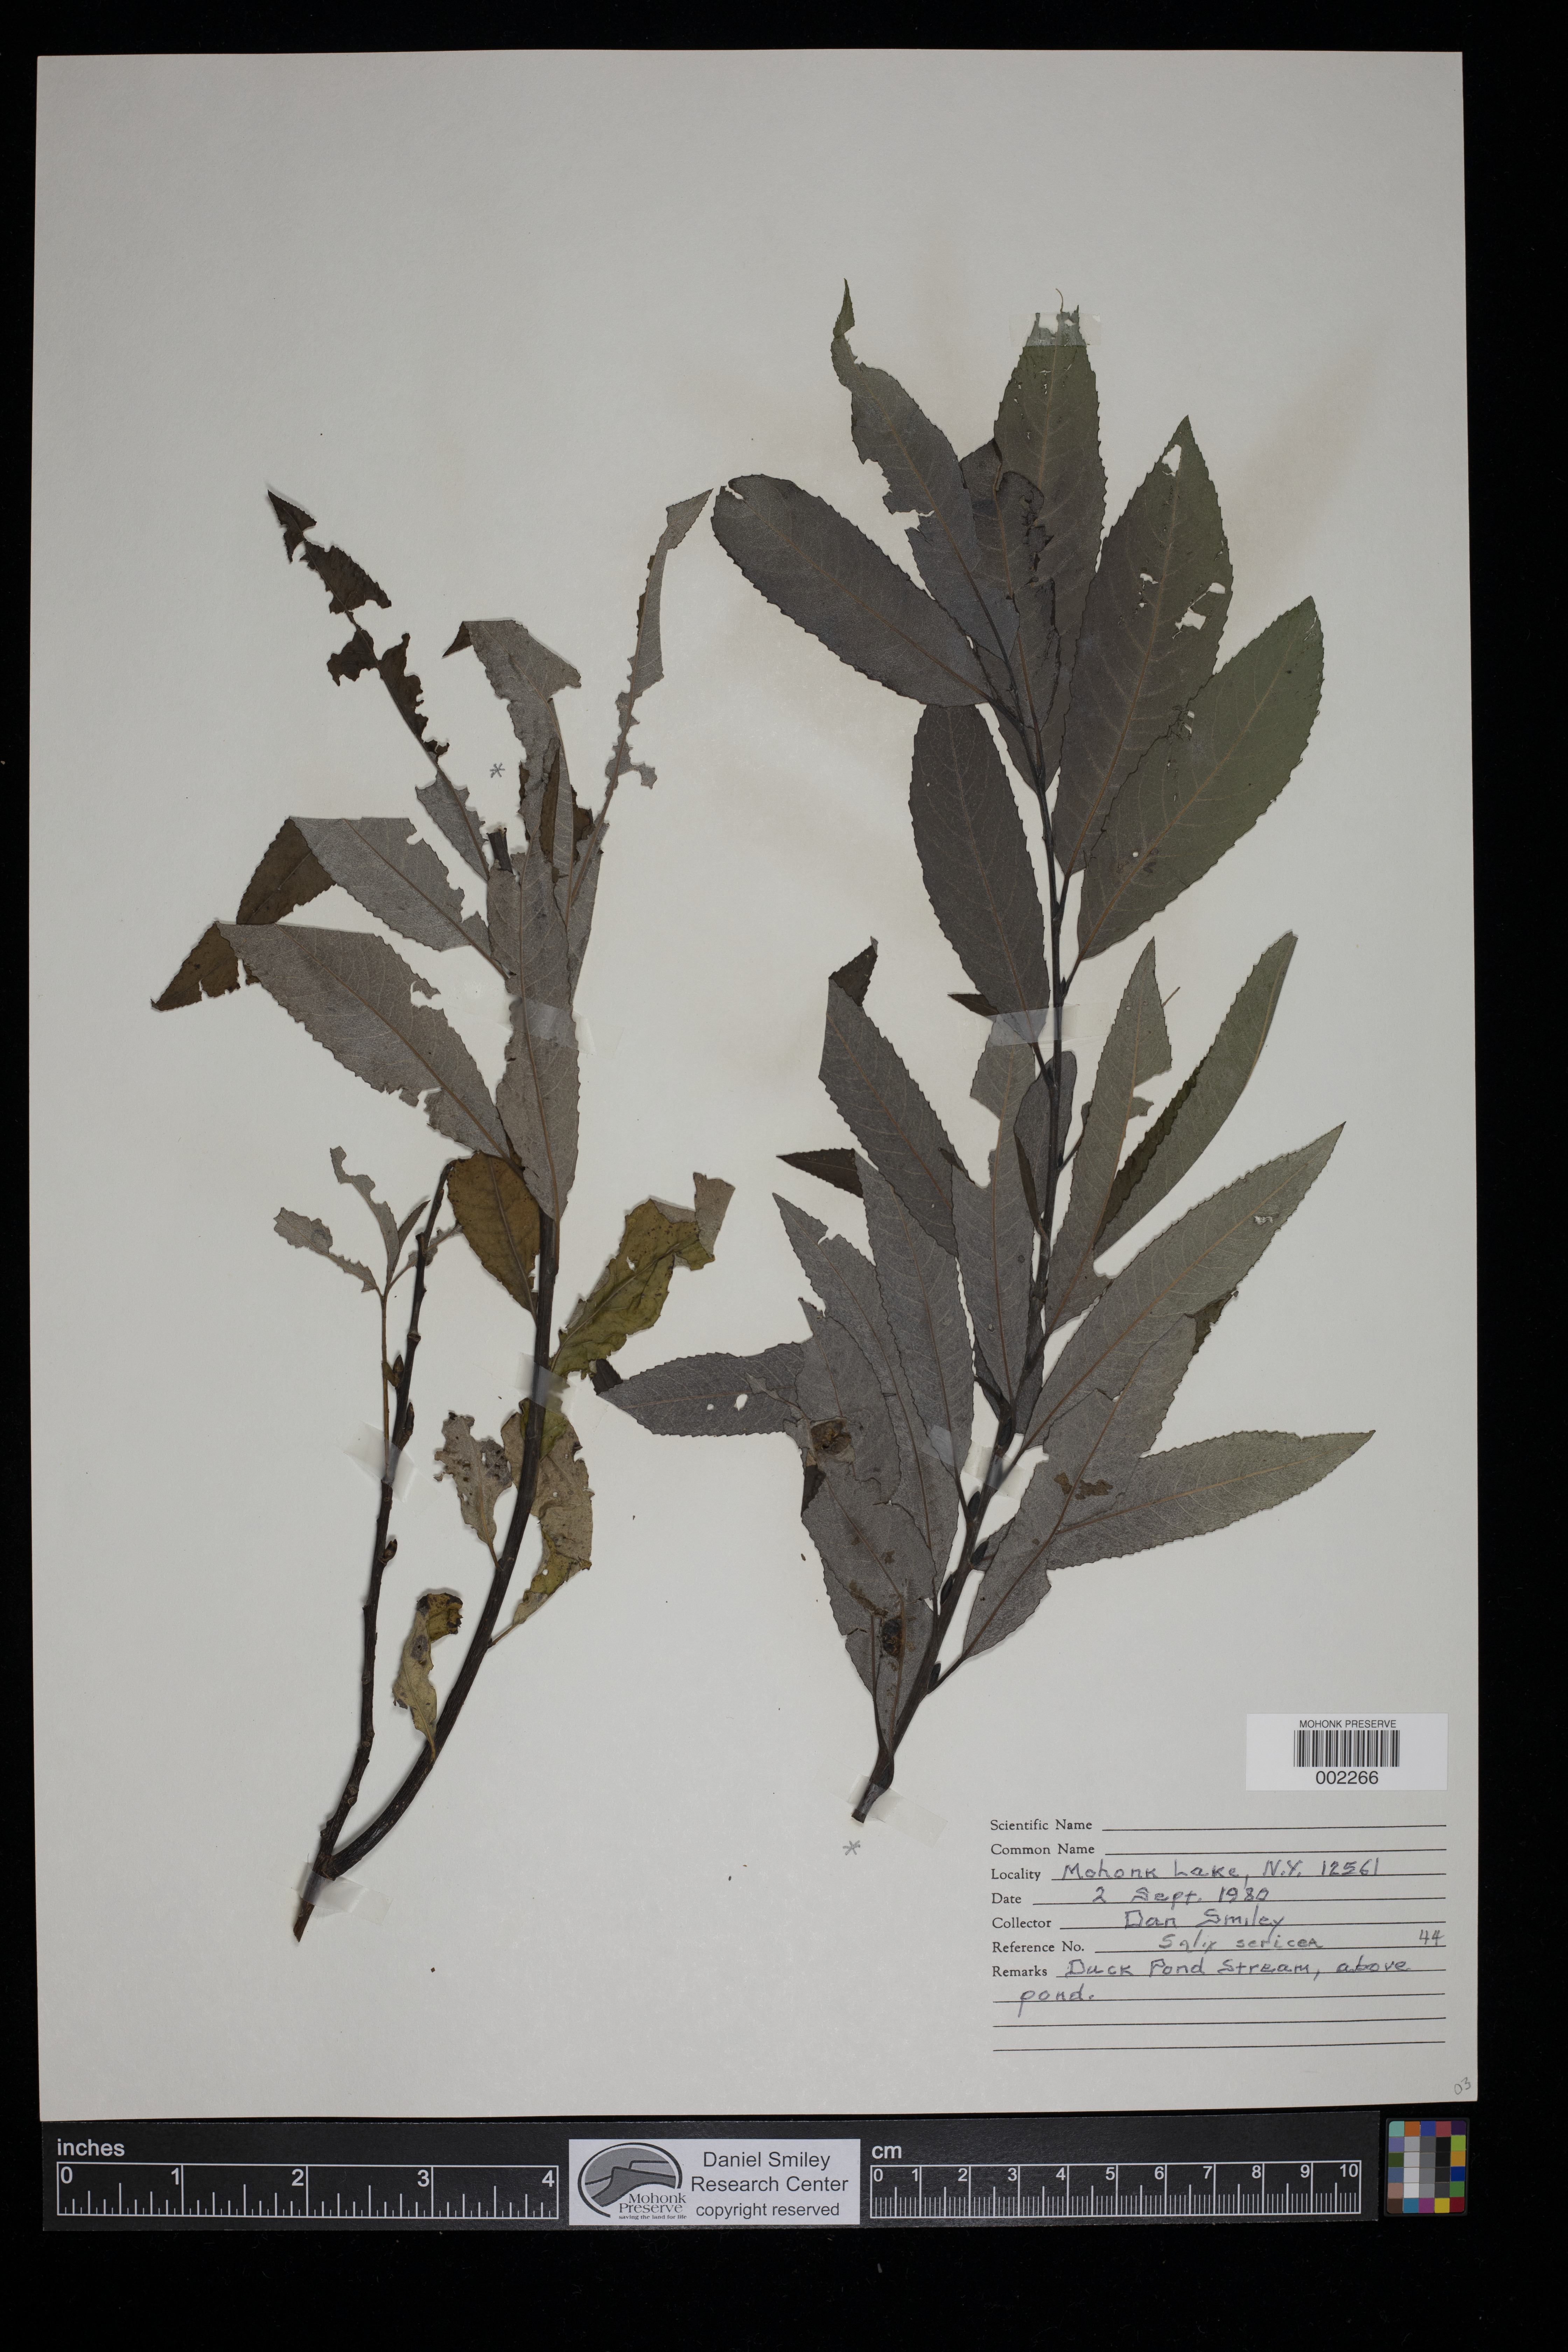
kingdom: Plantae
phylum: Tracheophyta
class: Magnoliopsida
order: Malpighiales
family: Salicaceae
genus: Salix
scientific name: Salix sericea
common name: Silky willow
